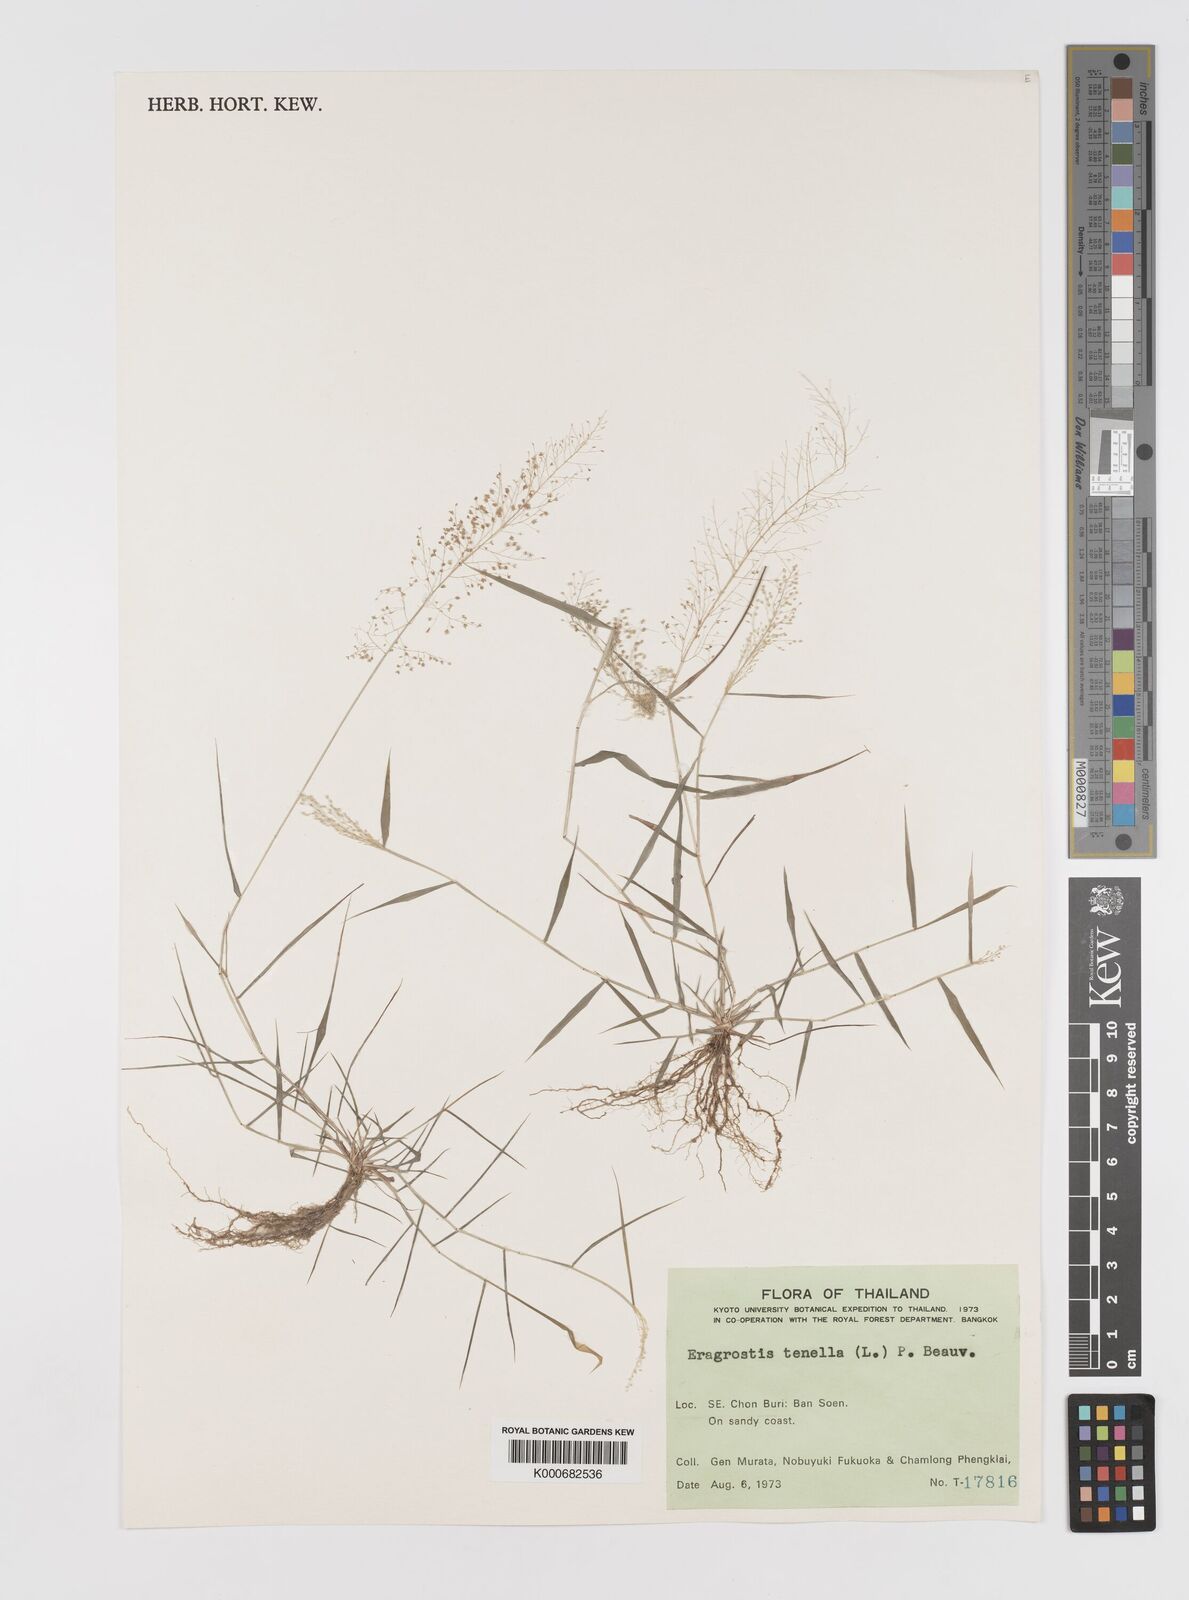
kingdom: Plantae
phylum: Tracheophyta
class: Liliopsida
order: Poales
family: Poaceae
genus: Eragrostis
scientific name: Eragrostis tenella
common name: Japanese lovegrass
